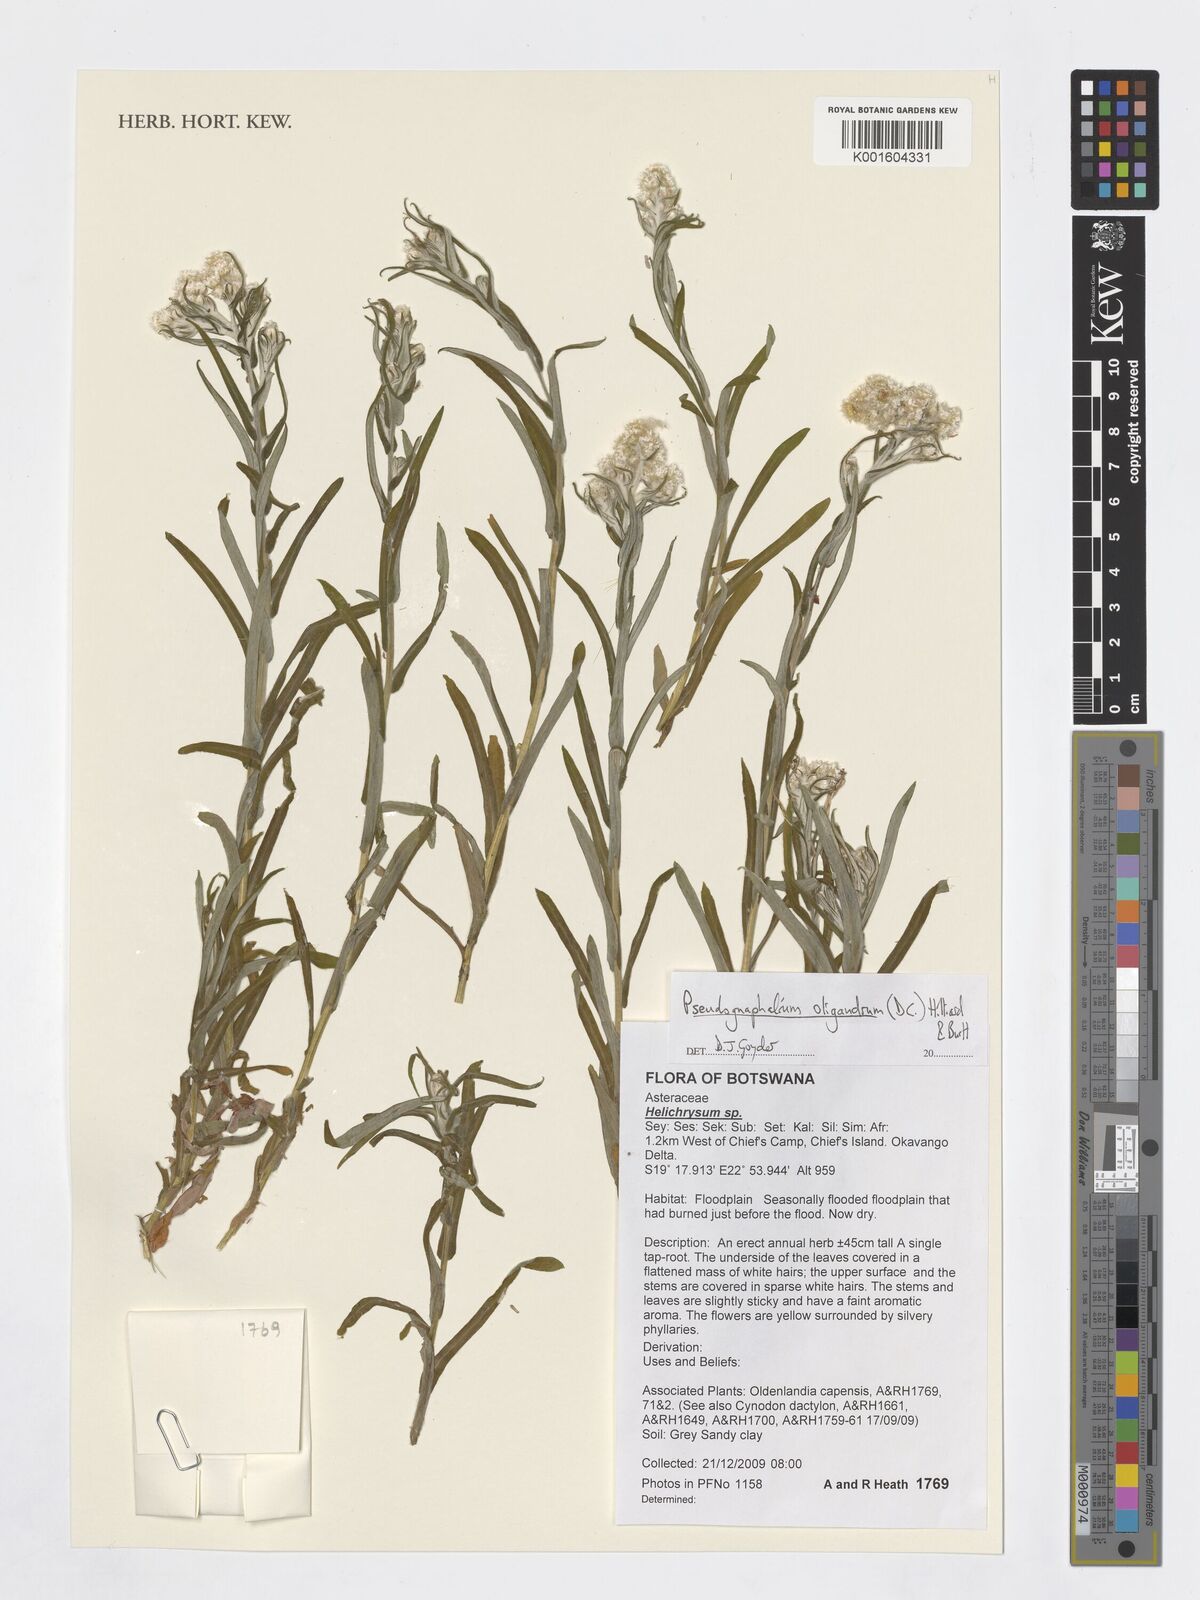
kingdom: Plantae
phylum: Tracheophyta
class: Magnoliopsida
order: Asterales
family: Asteraceae
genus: Pseudognaphalium
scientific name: Pseudognaphalium oligandrum
